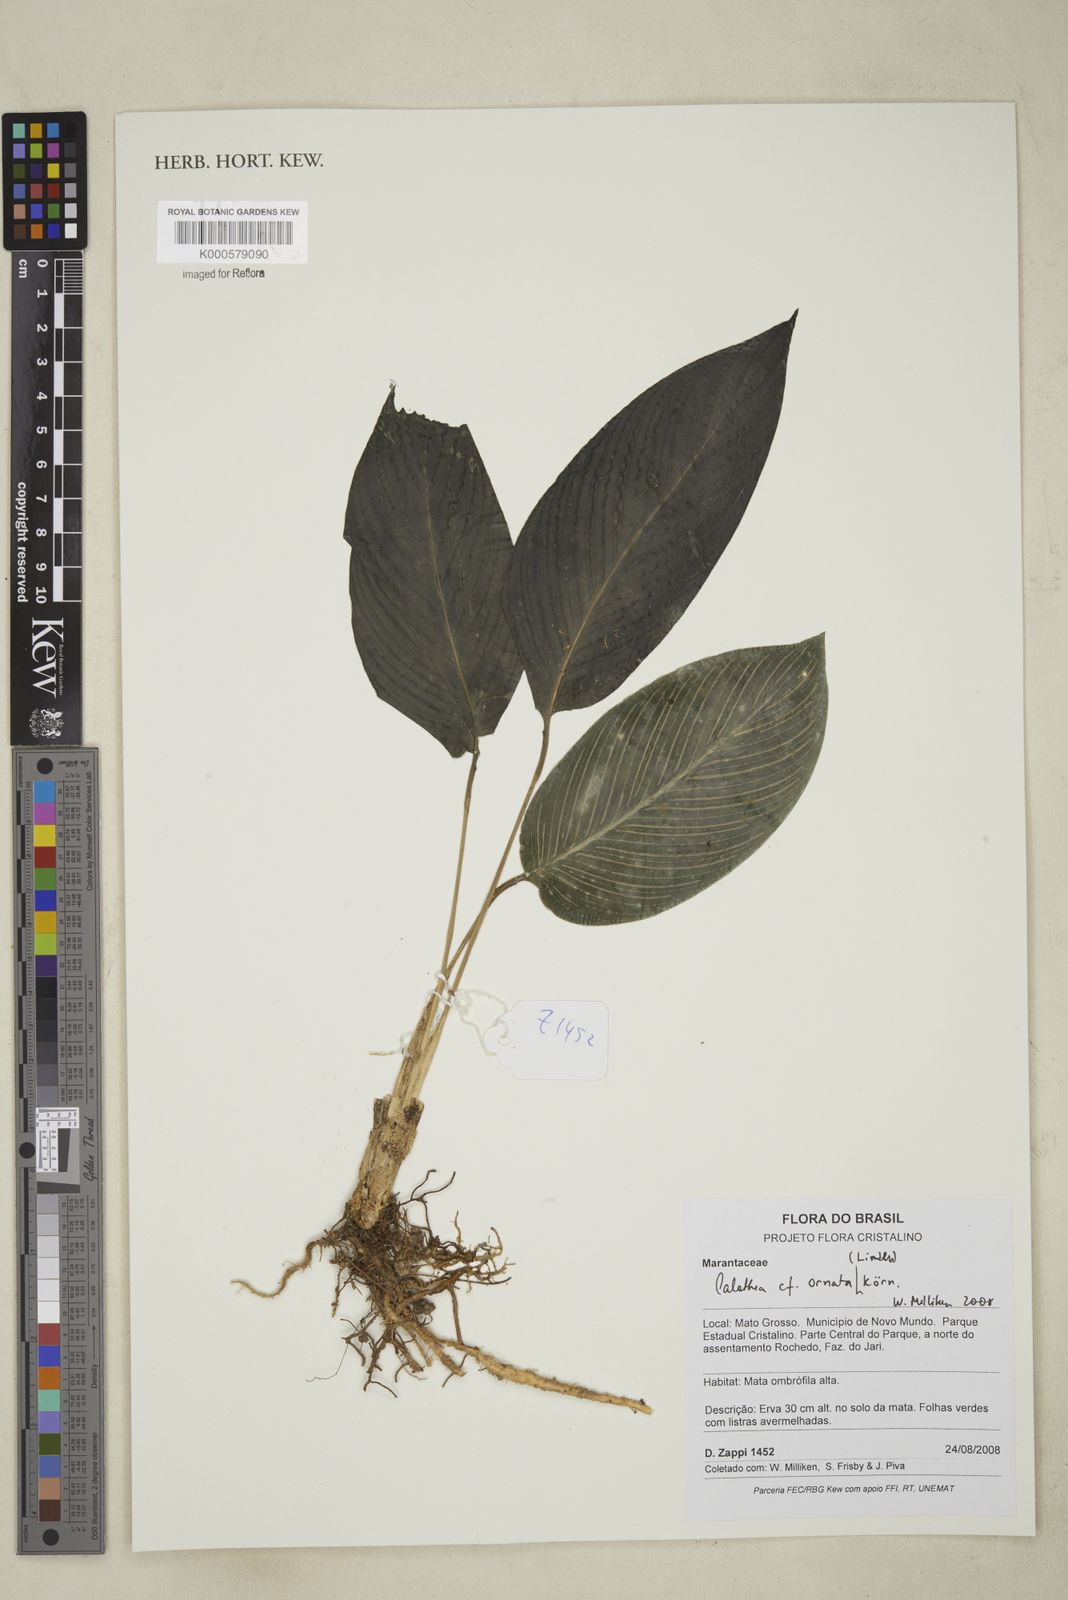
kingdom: Plantae
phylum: Tracheophyta
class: Liliopsida
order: Zingiberales
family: Marantaceae
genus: Calathea
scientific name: Calathea
